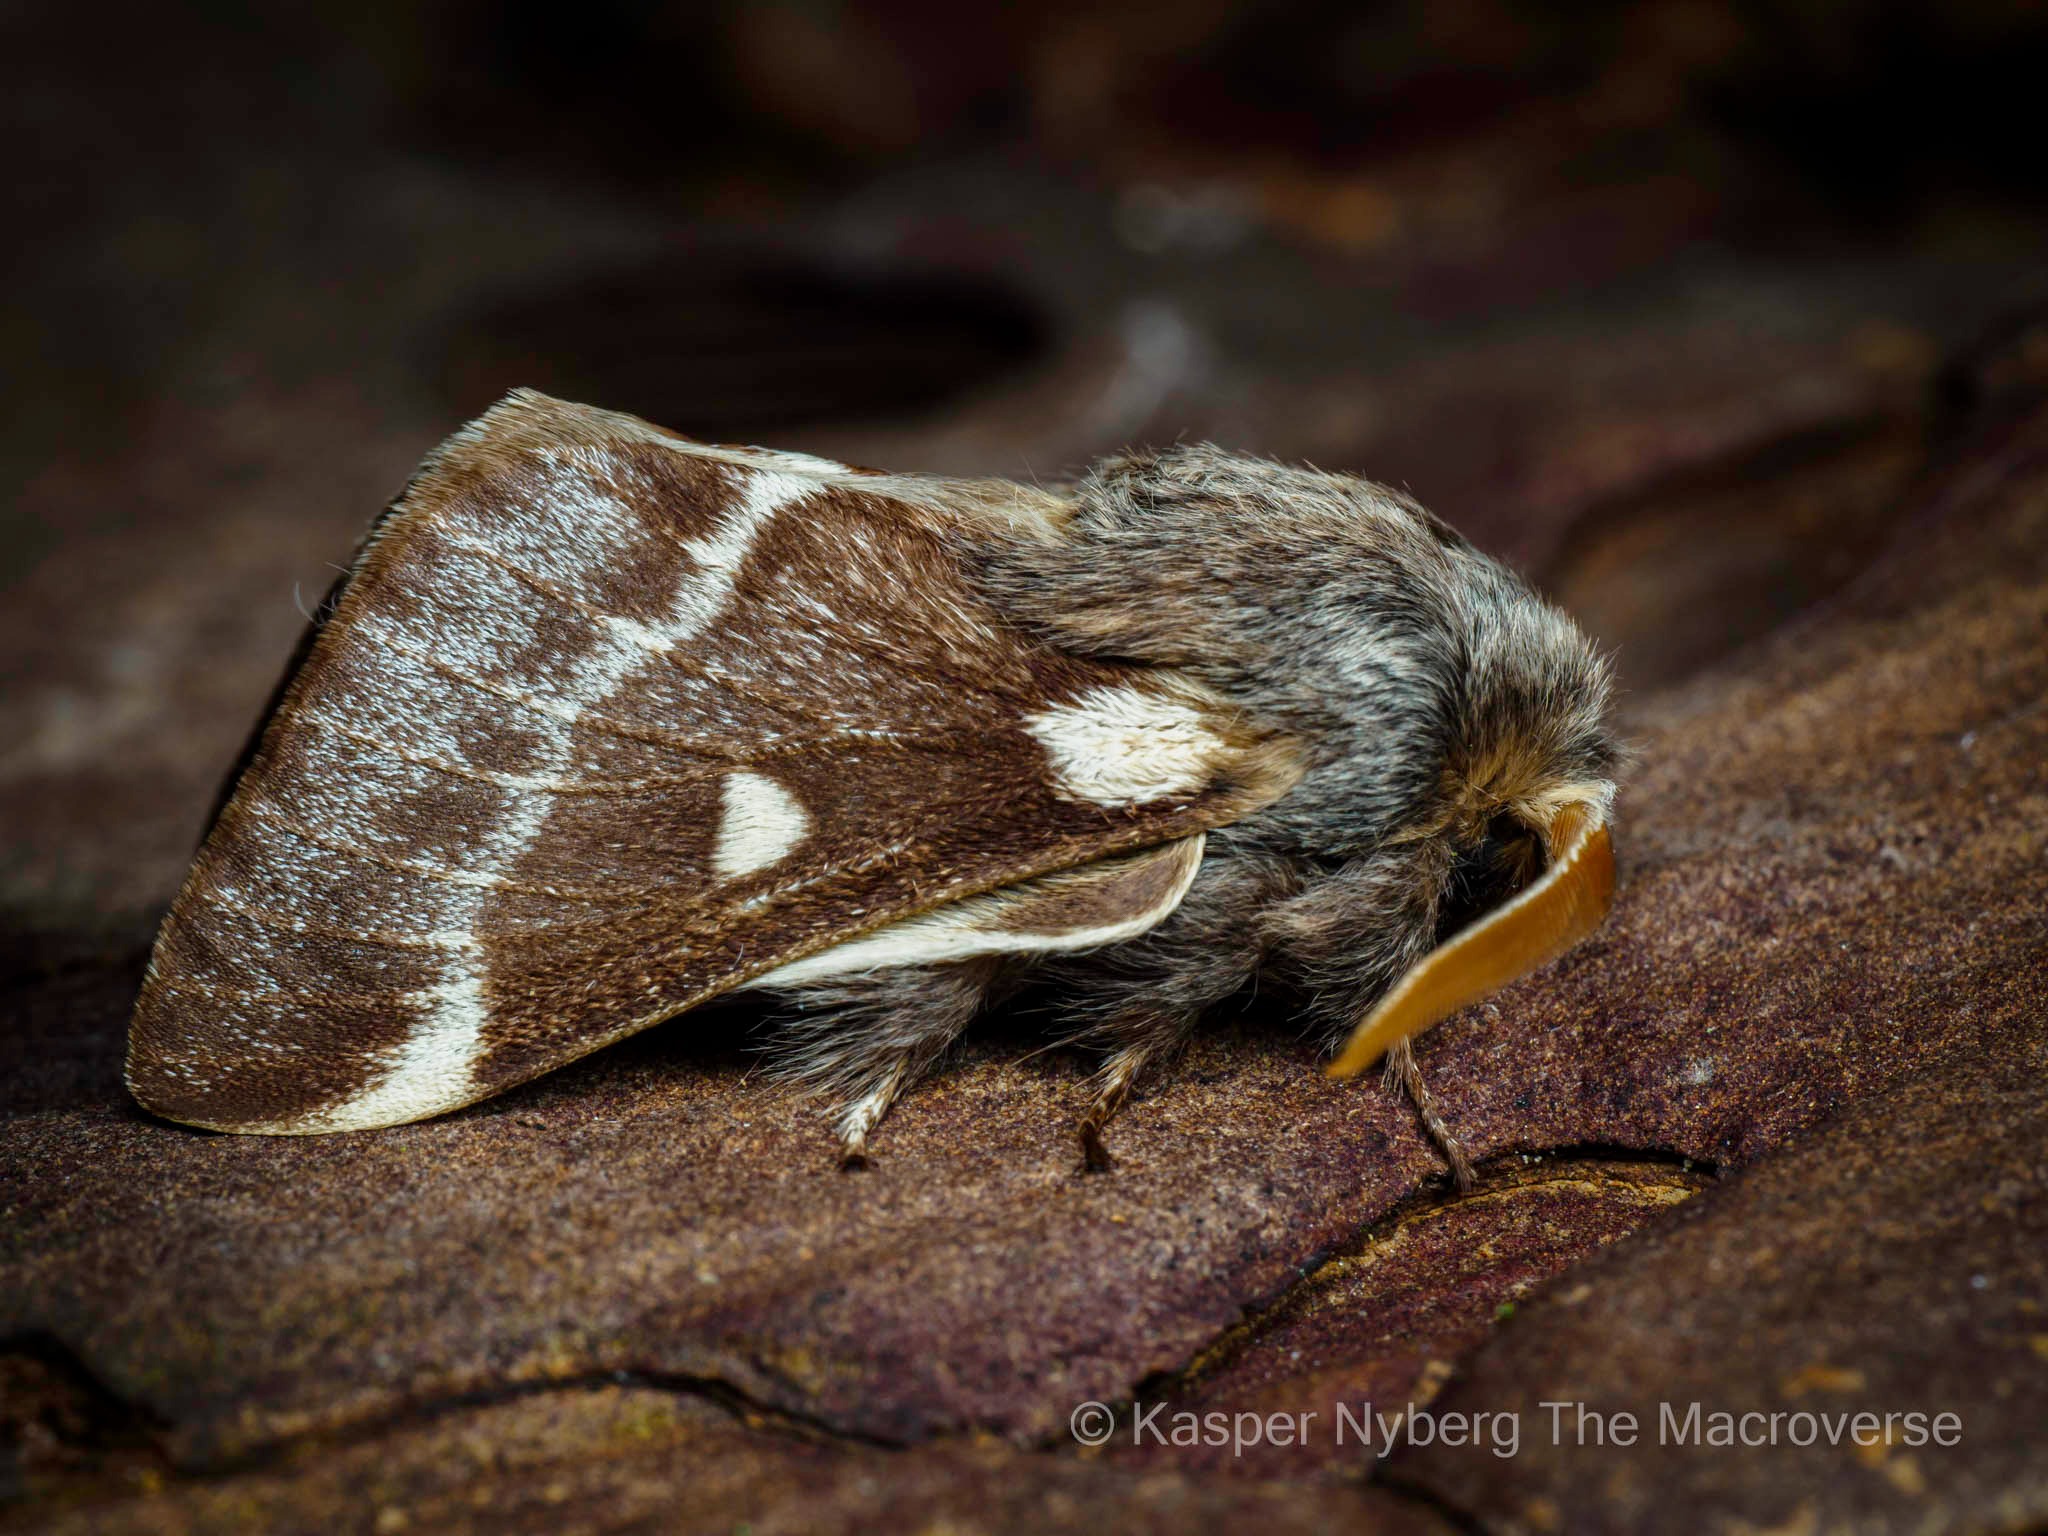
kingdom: Animalia
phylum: Arthropoda
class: Insecta
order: Lepidoptera
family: Lasiocampidae
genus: Eriogaster
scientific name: Eriogaster lanestris
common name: Uldhale
